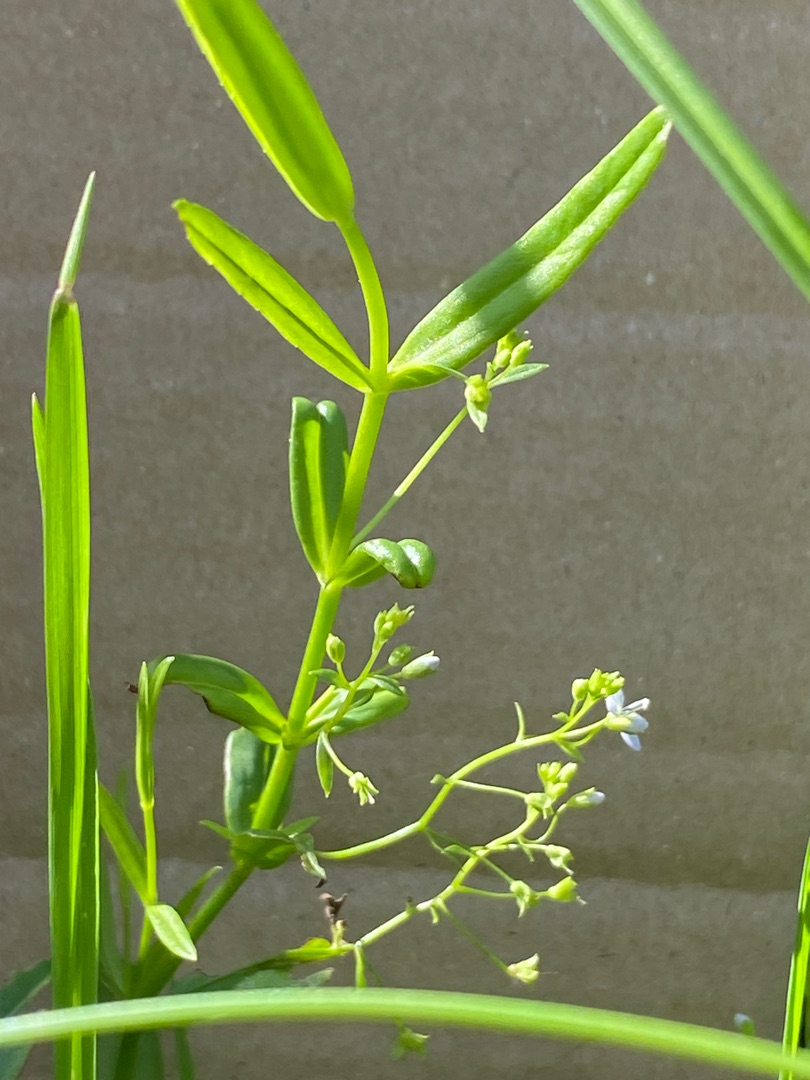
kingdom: Plantae
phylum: Tracheophyta
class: Magnoliopsida
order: Lamiales
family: Plantaginaceae
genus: Veronica
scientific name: Veronica scutellata
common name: Smalbladet ærenpris
